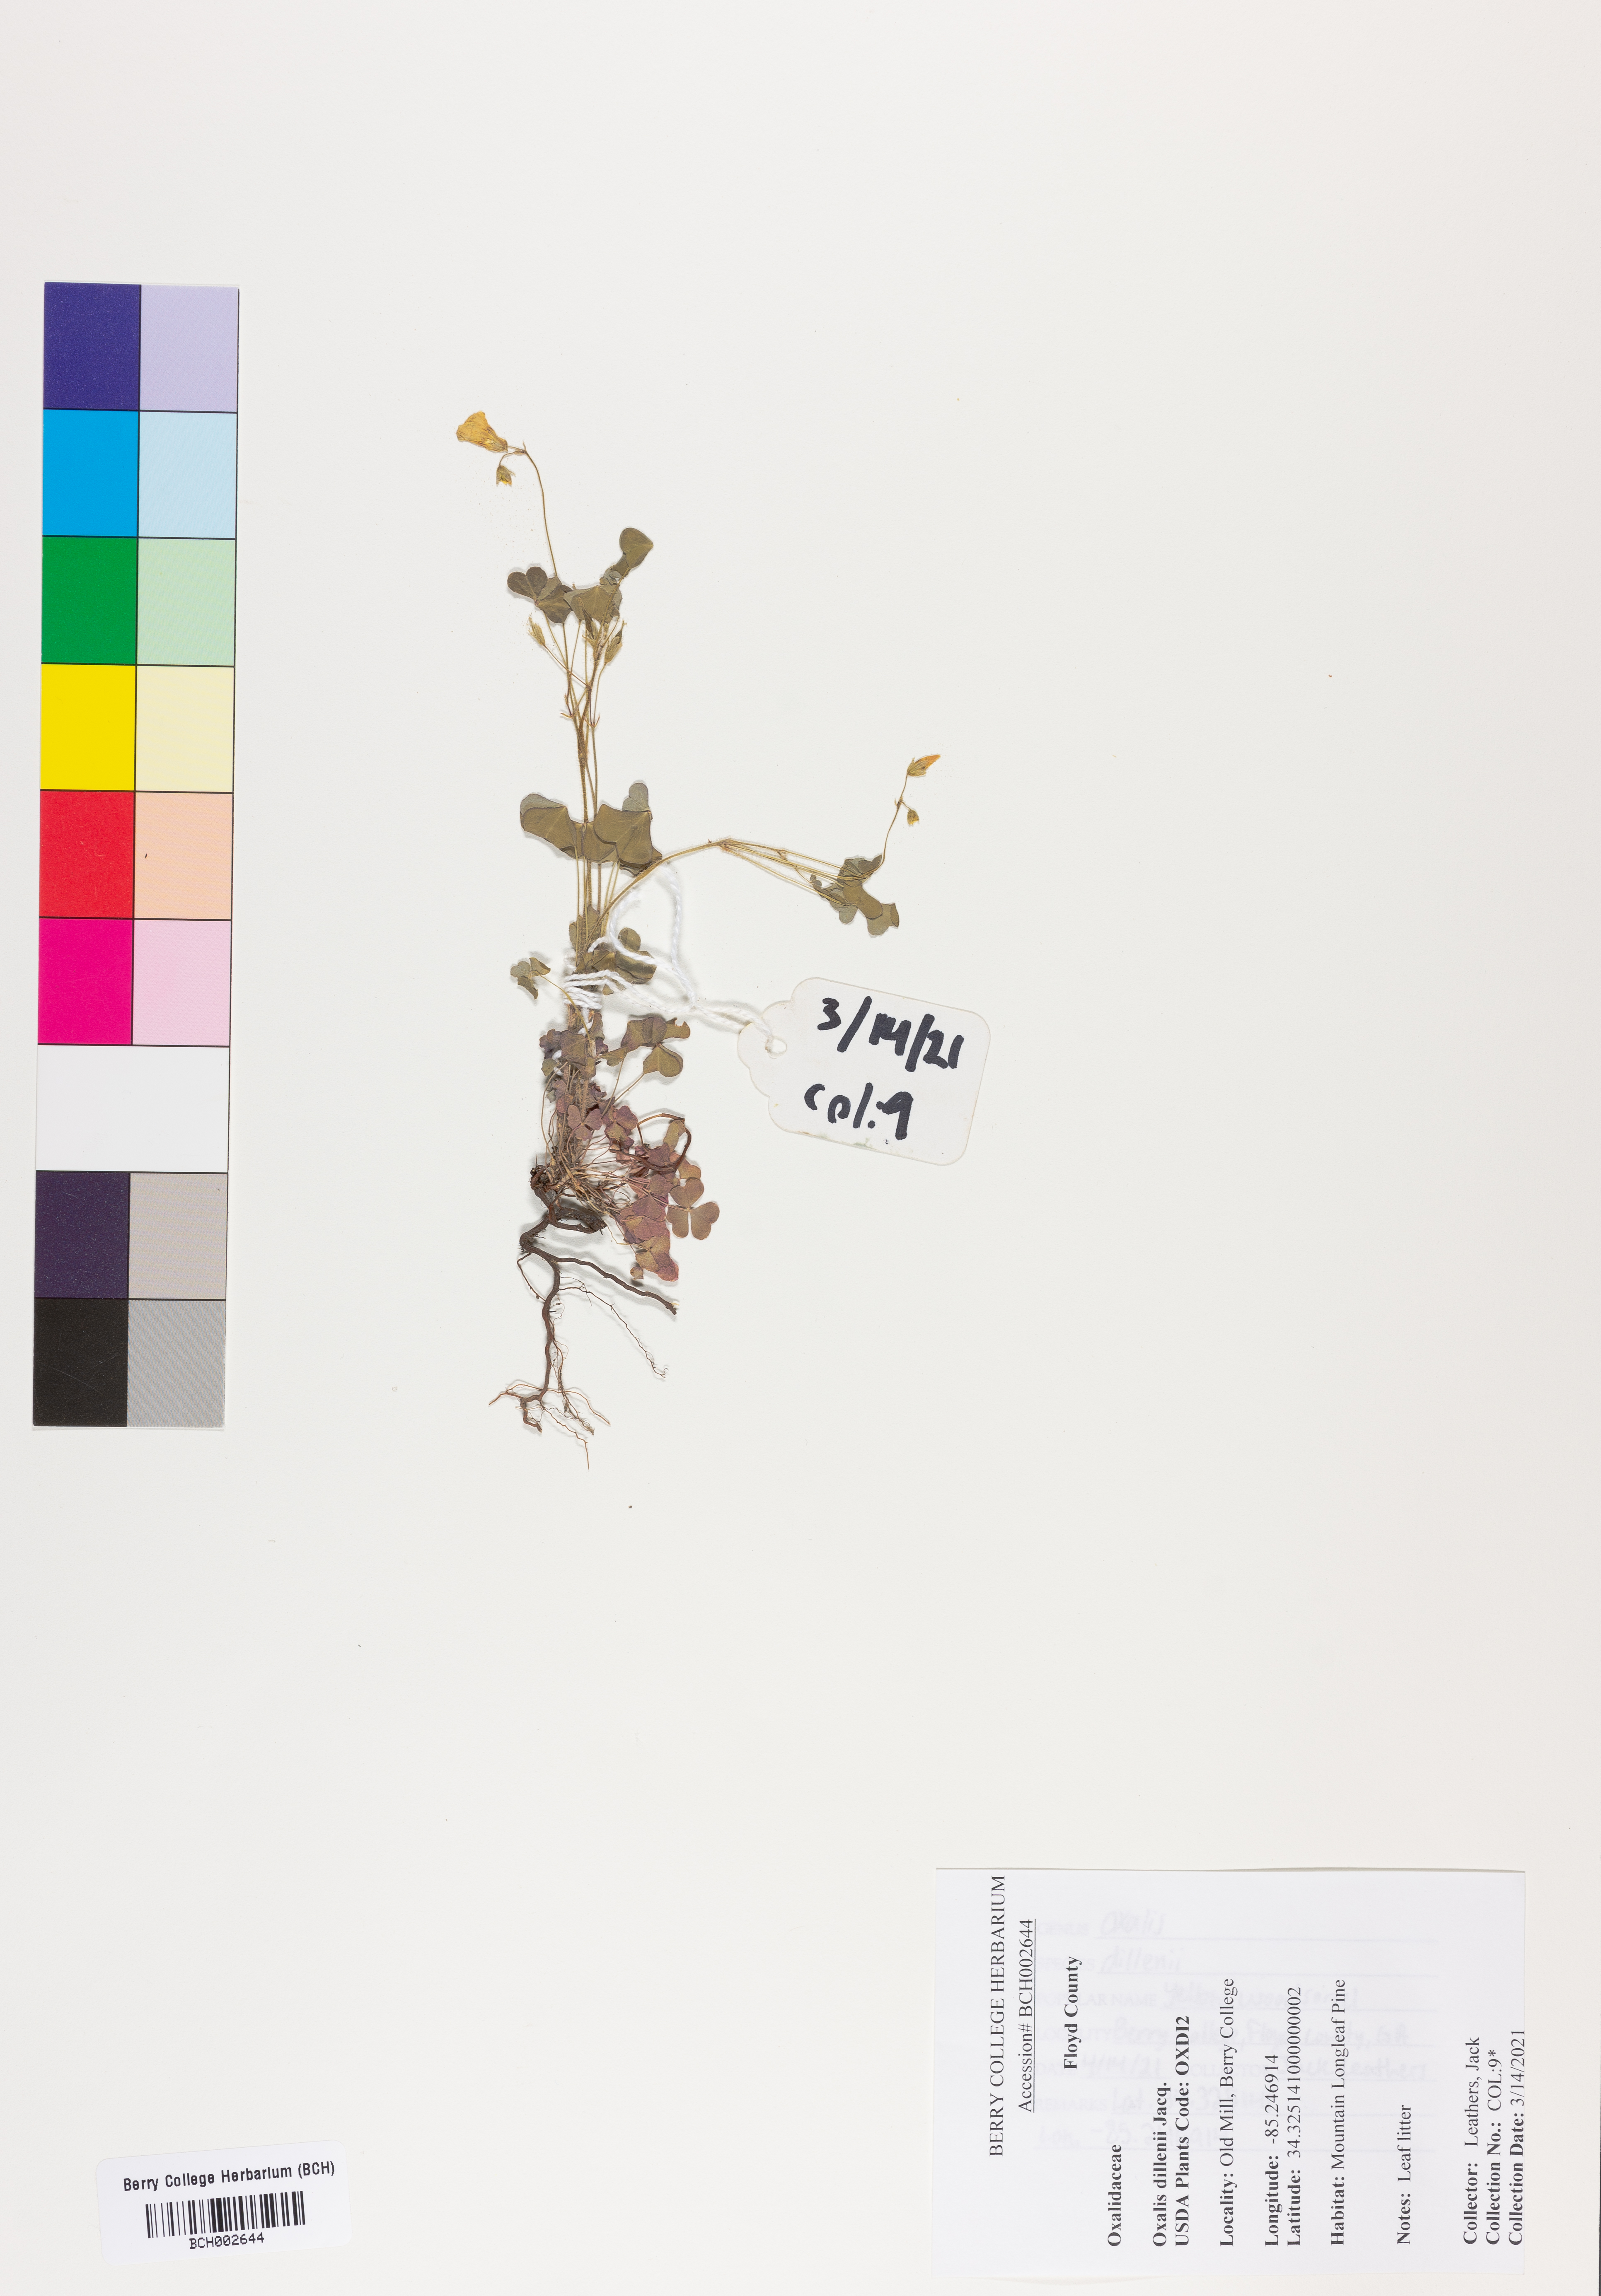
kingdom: Plantae
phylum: Tracheophyta
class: Magnoliopsida
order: Oxalidales
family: Oxalidaceae
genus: Oxalis
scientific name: Oxalis dillenii
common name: Sussex yellow-sorrel
